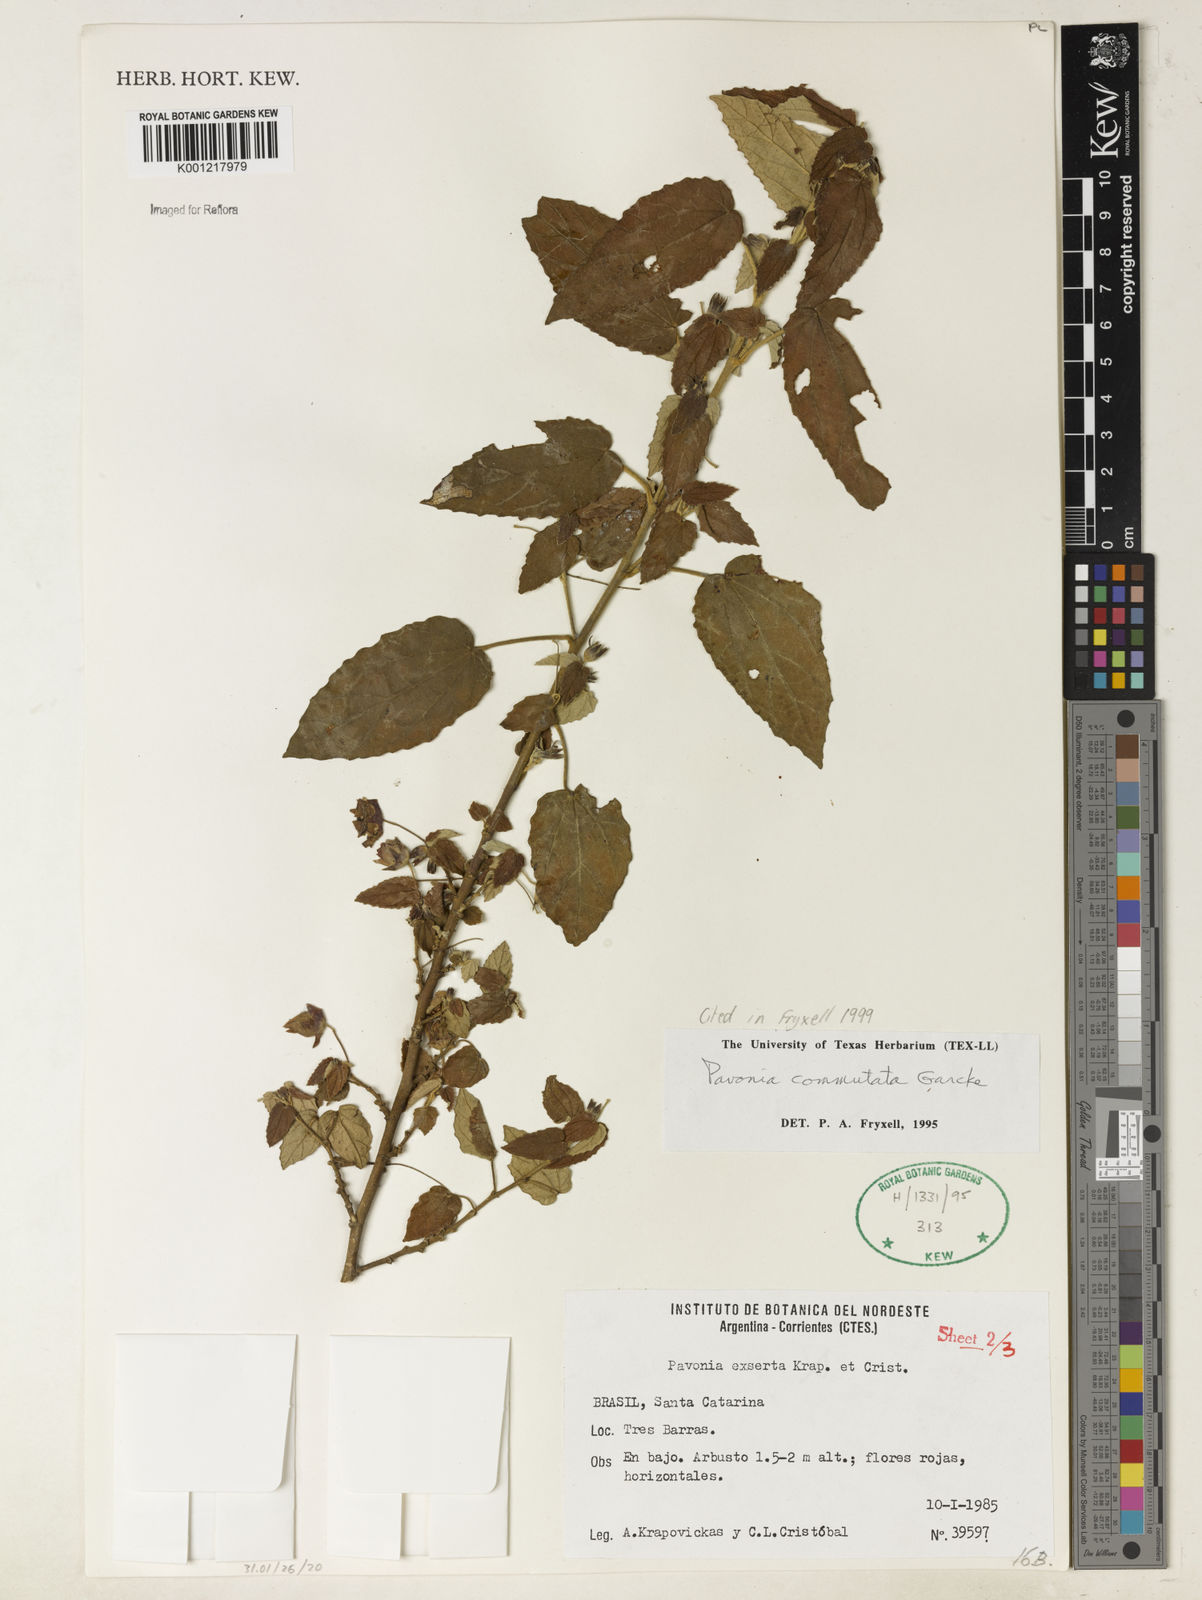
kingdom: Plantae
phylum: Tracheophyta
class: Magnoliopsida
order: Malvales
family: Malvaceae
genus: Pavonia
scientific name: Pavonia commutata
